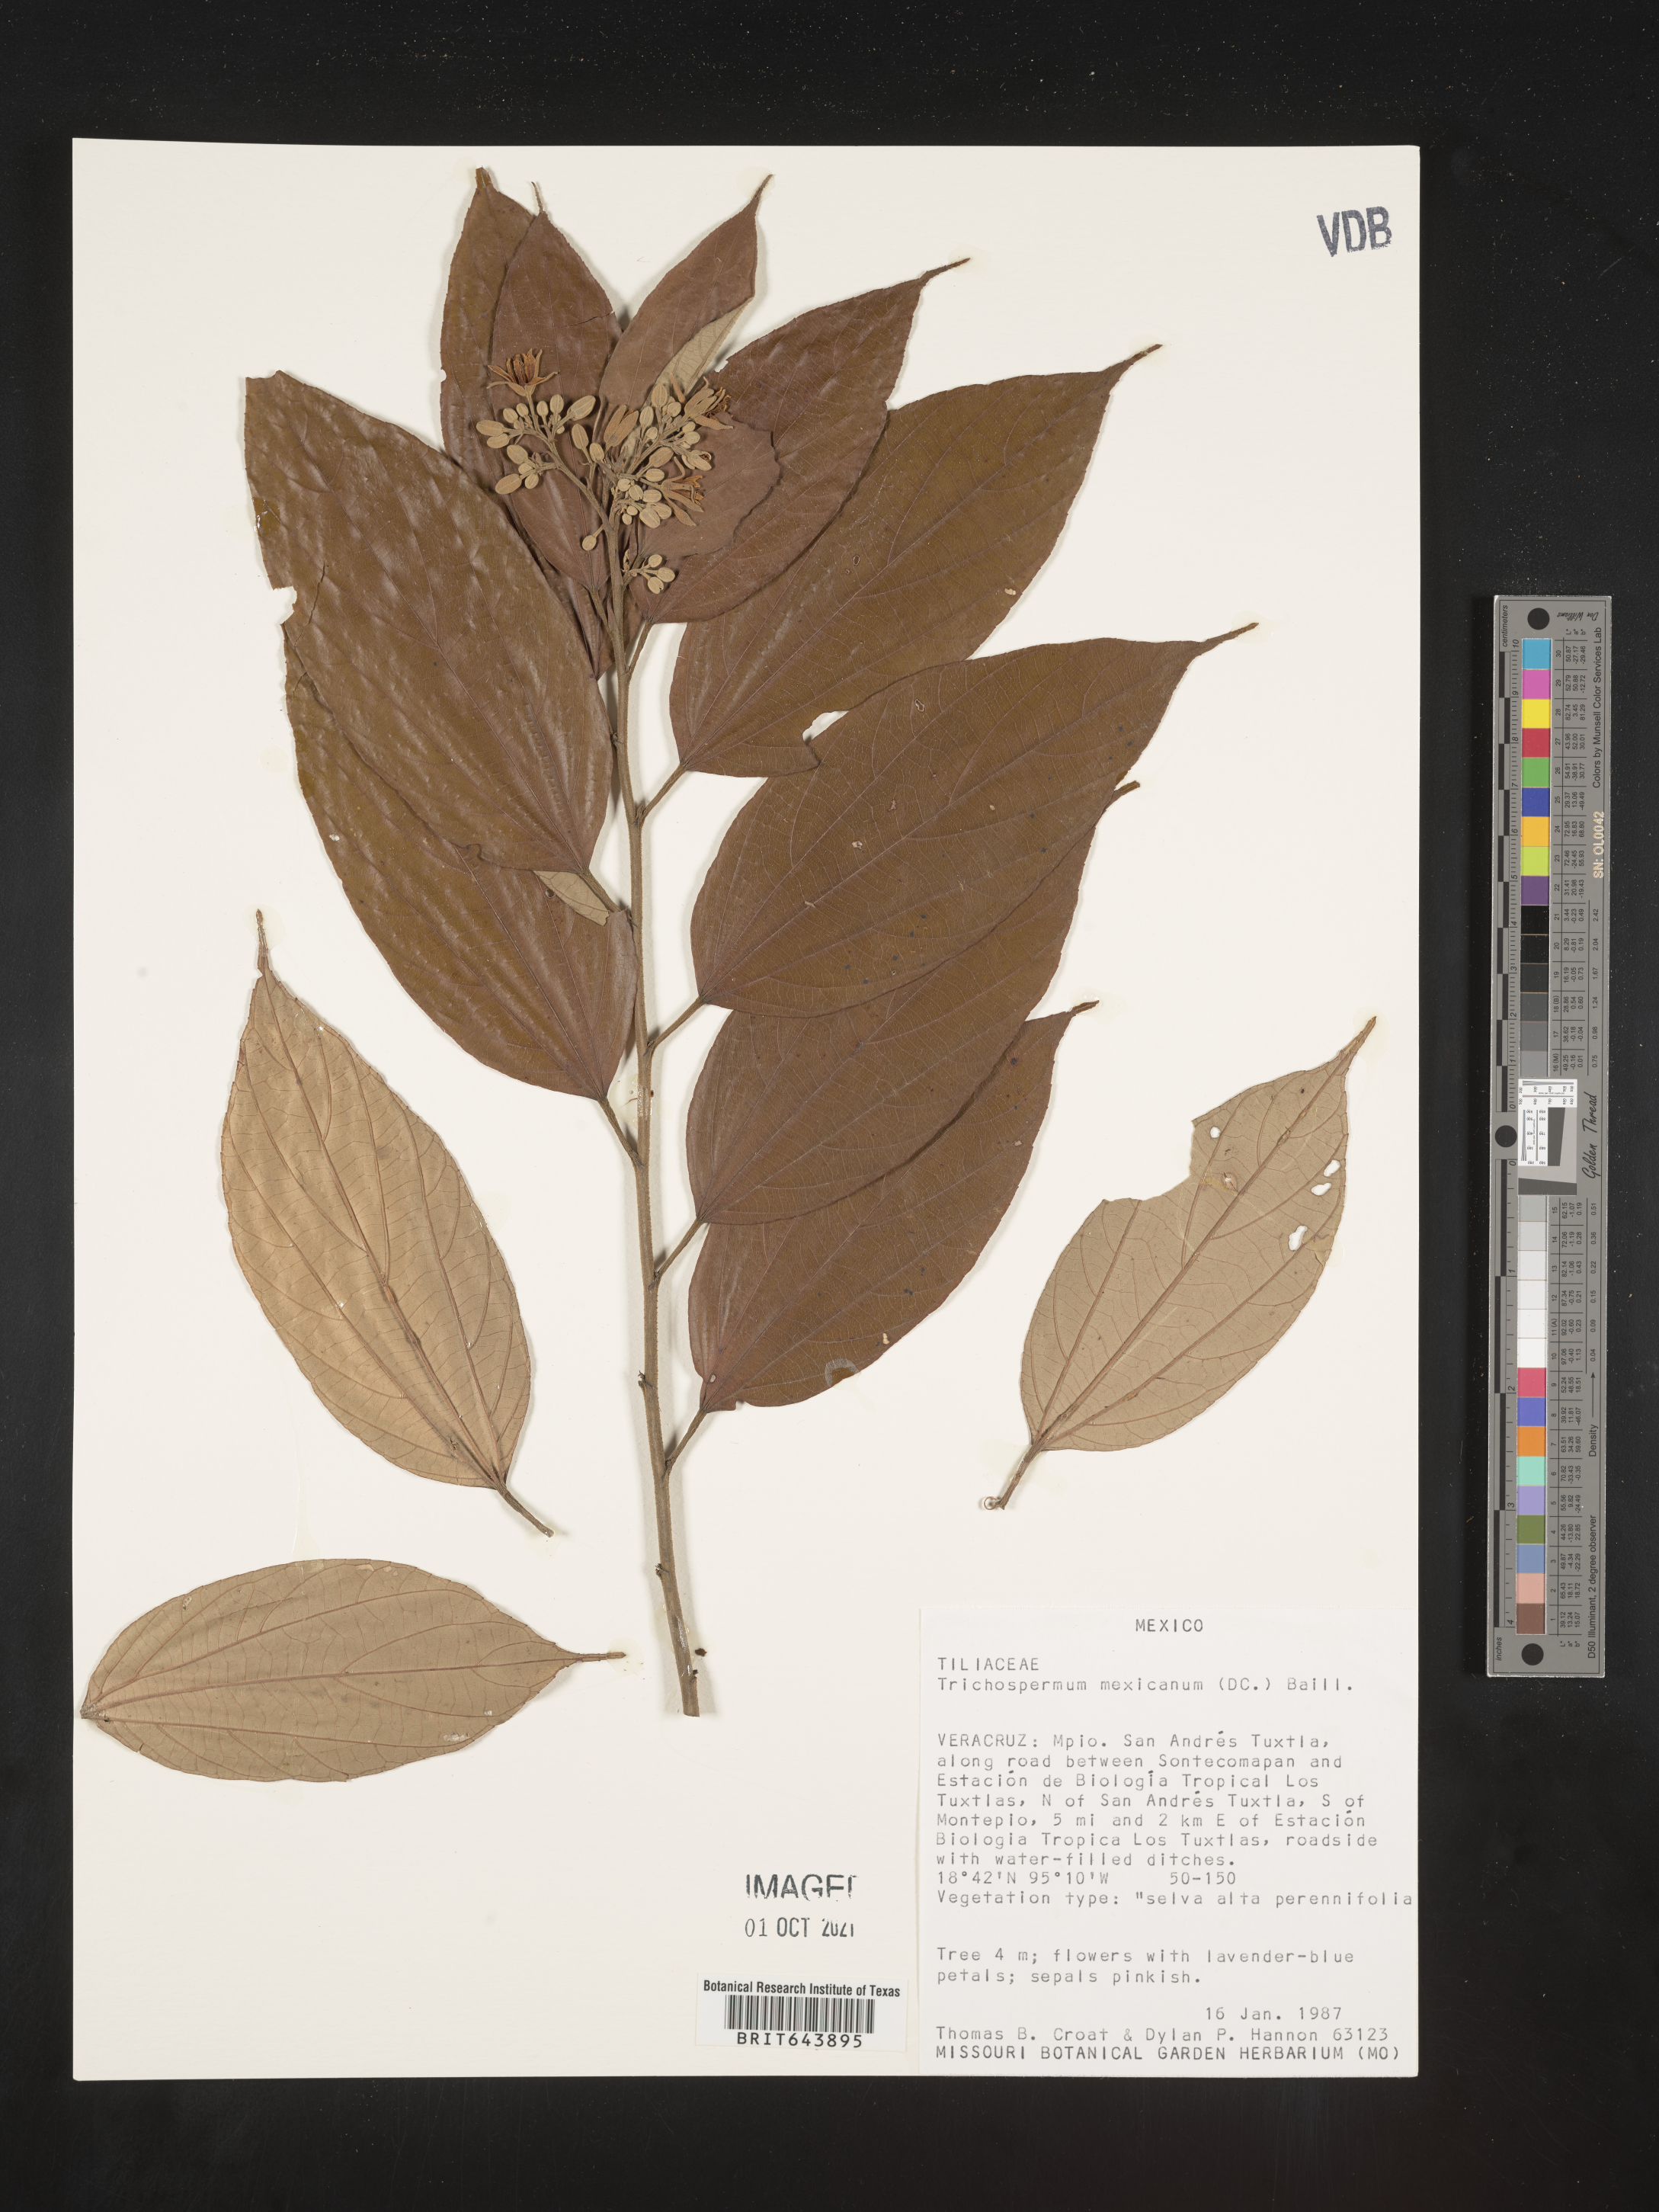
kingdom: Plantae
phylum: Tracheophyta
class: Magnoliopsida
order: Malvales
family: Malvaceae
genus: Trichospermum
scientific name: Trichospermum
